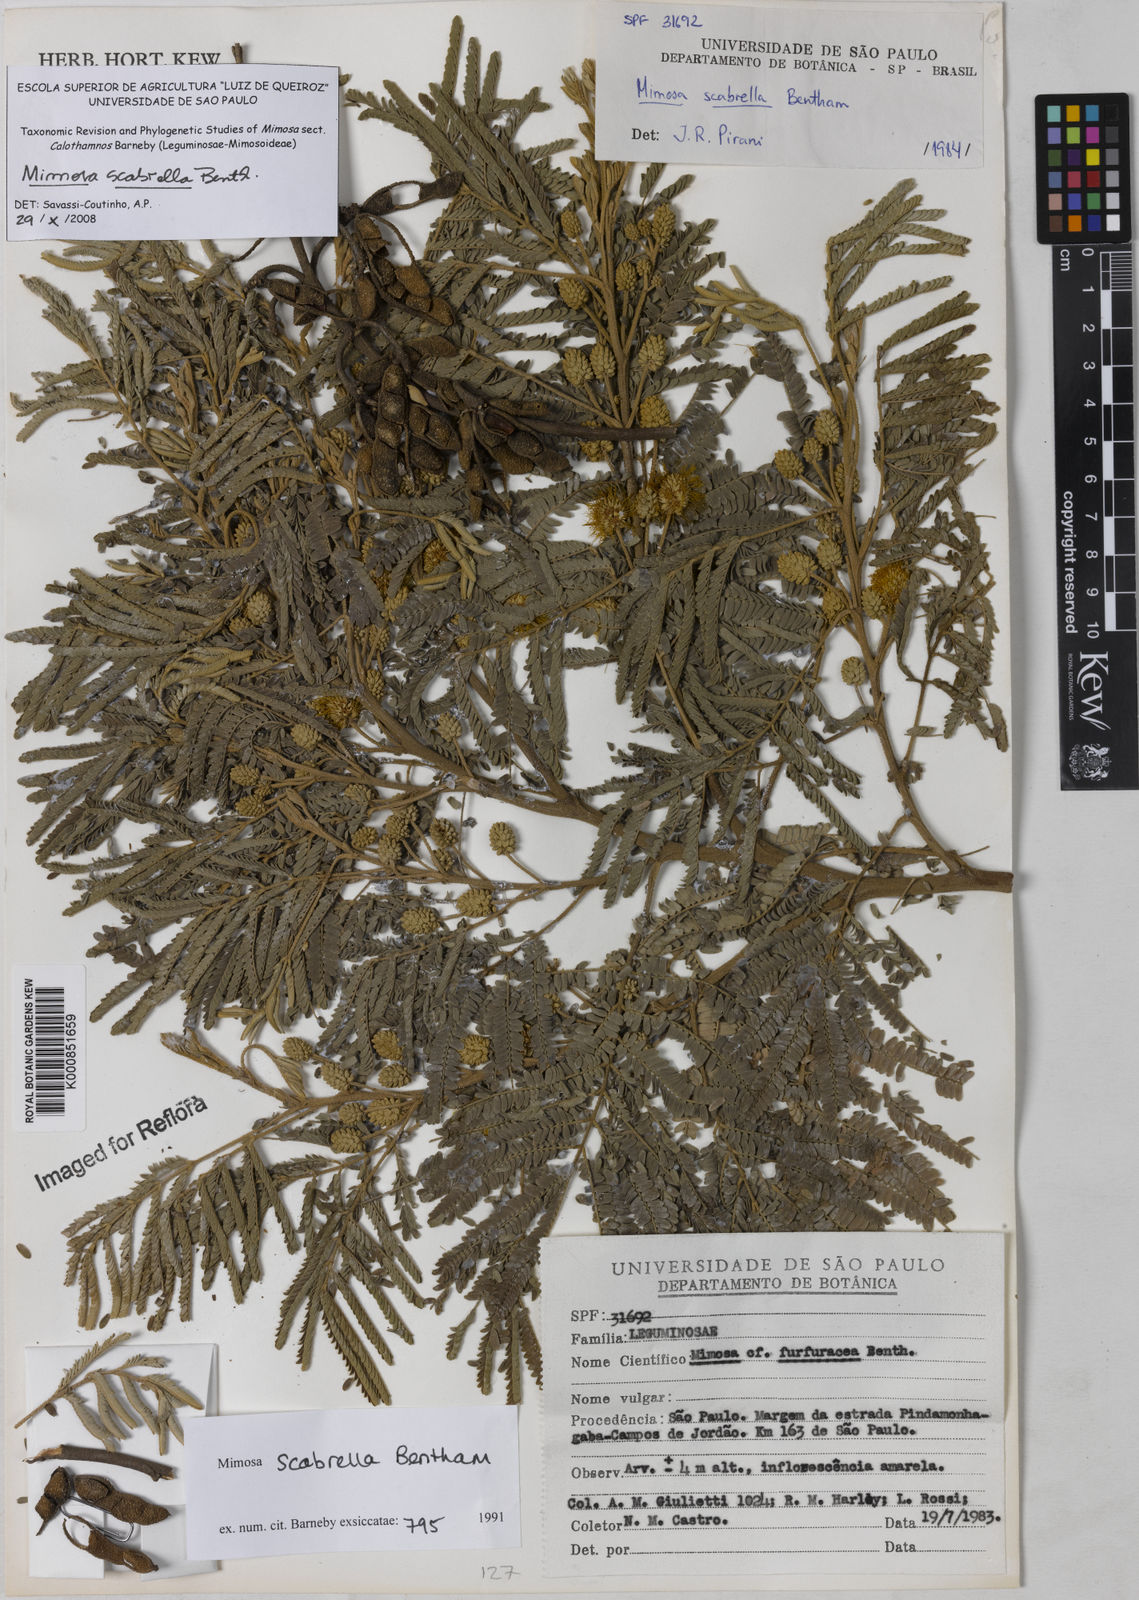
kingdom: Plantae
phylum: Tracheophyta
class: Magnoliopsida
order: Fabales
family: Fabaceae
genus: Mimosa
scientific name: Mimosa scabrella
